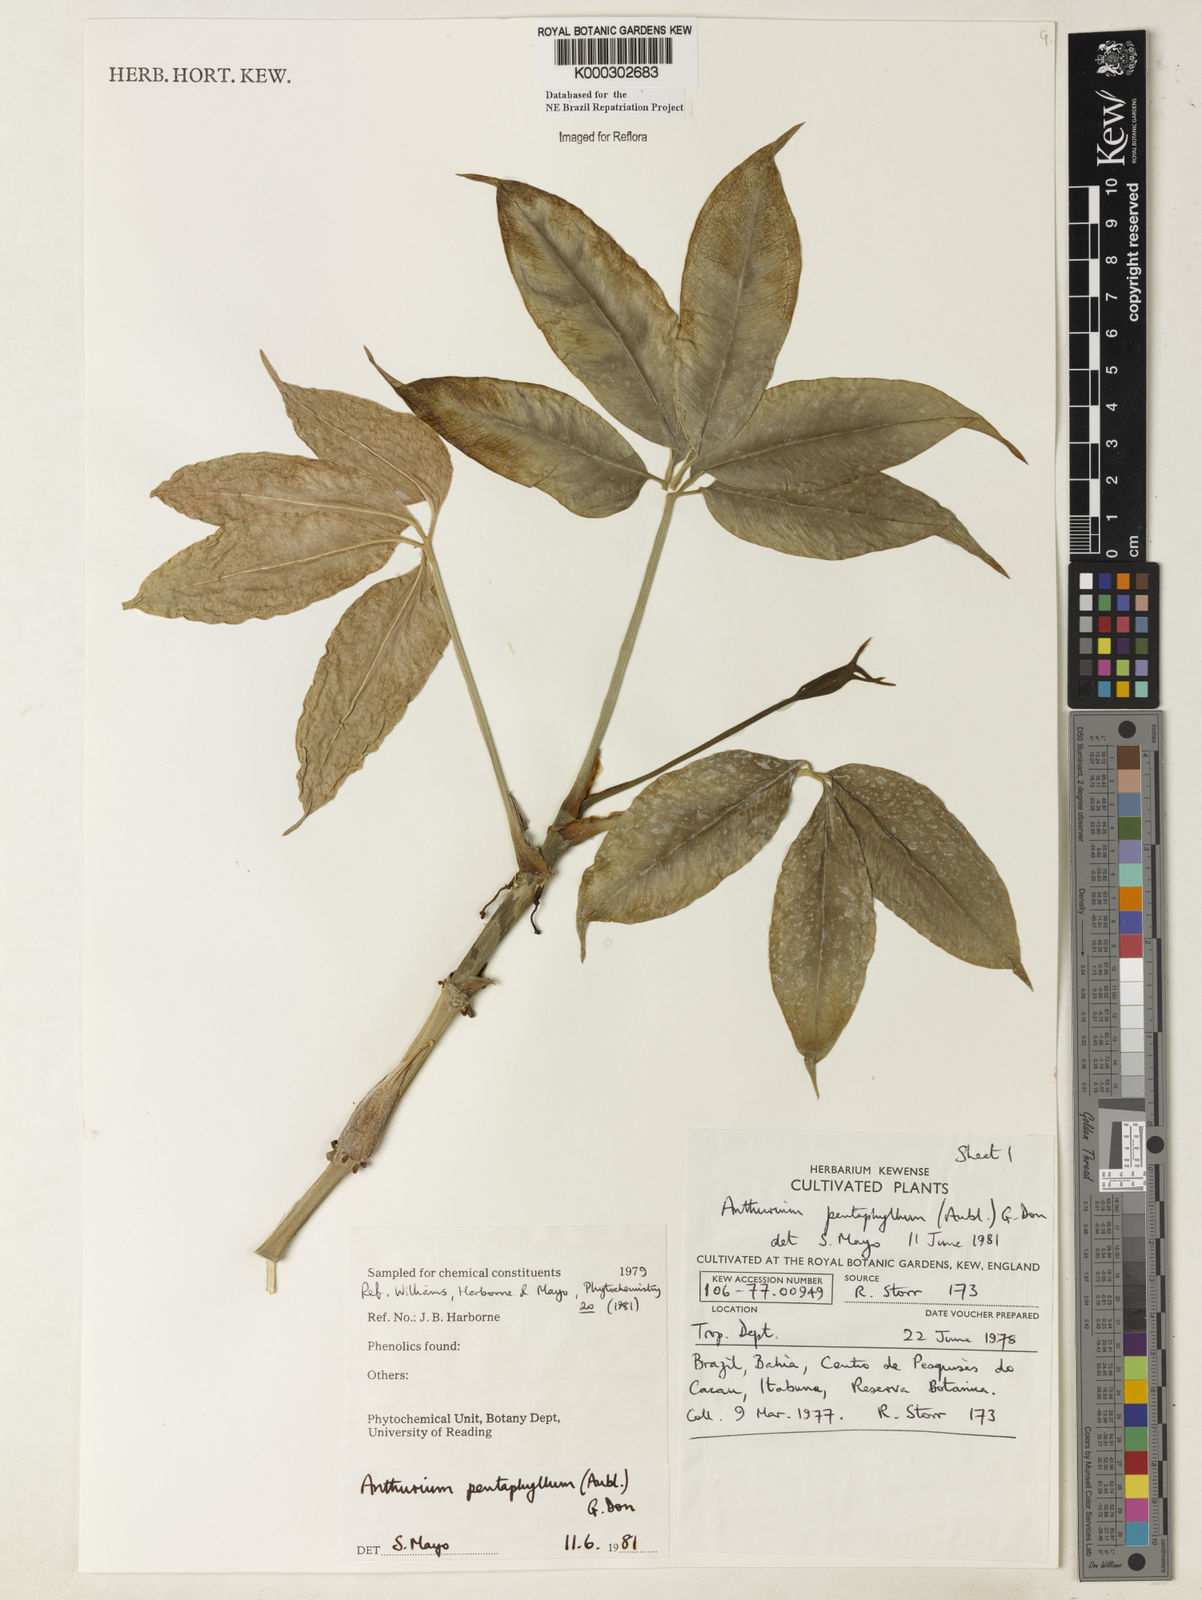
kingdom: Plantae
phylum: Tracheophyta
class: Liliopsida
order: Alismatales
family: Araceae
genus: Anthurium
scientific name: Anthurium pentaphyllum
